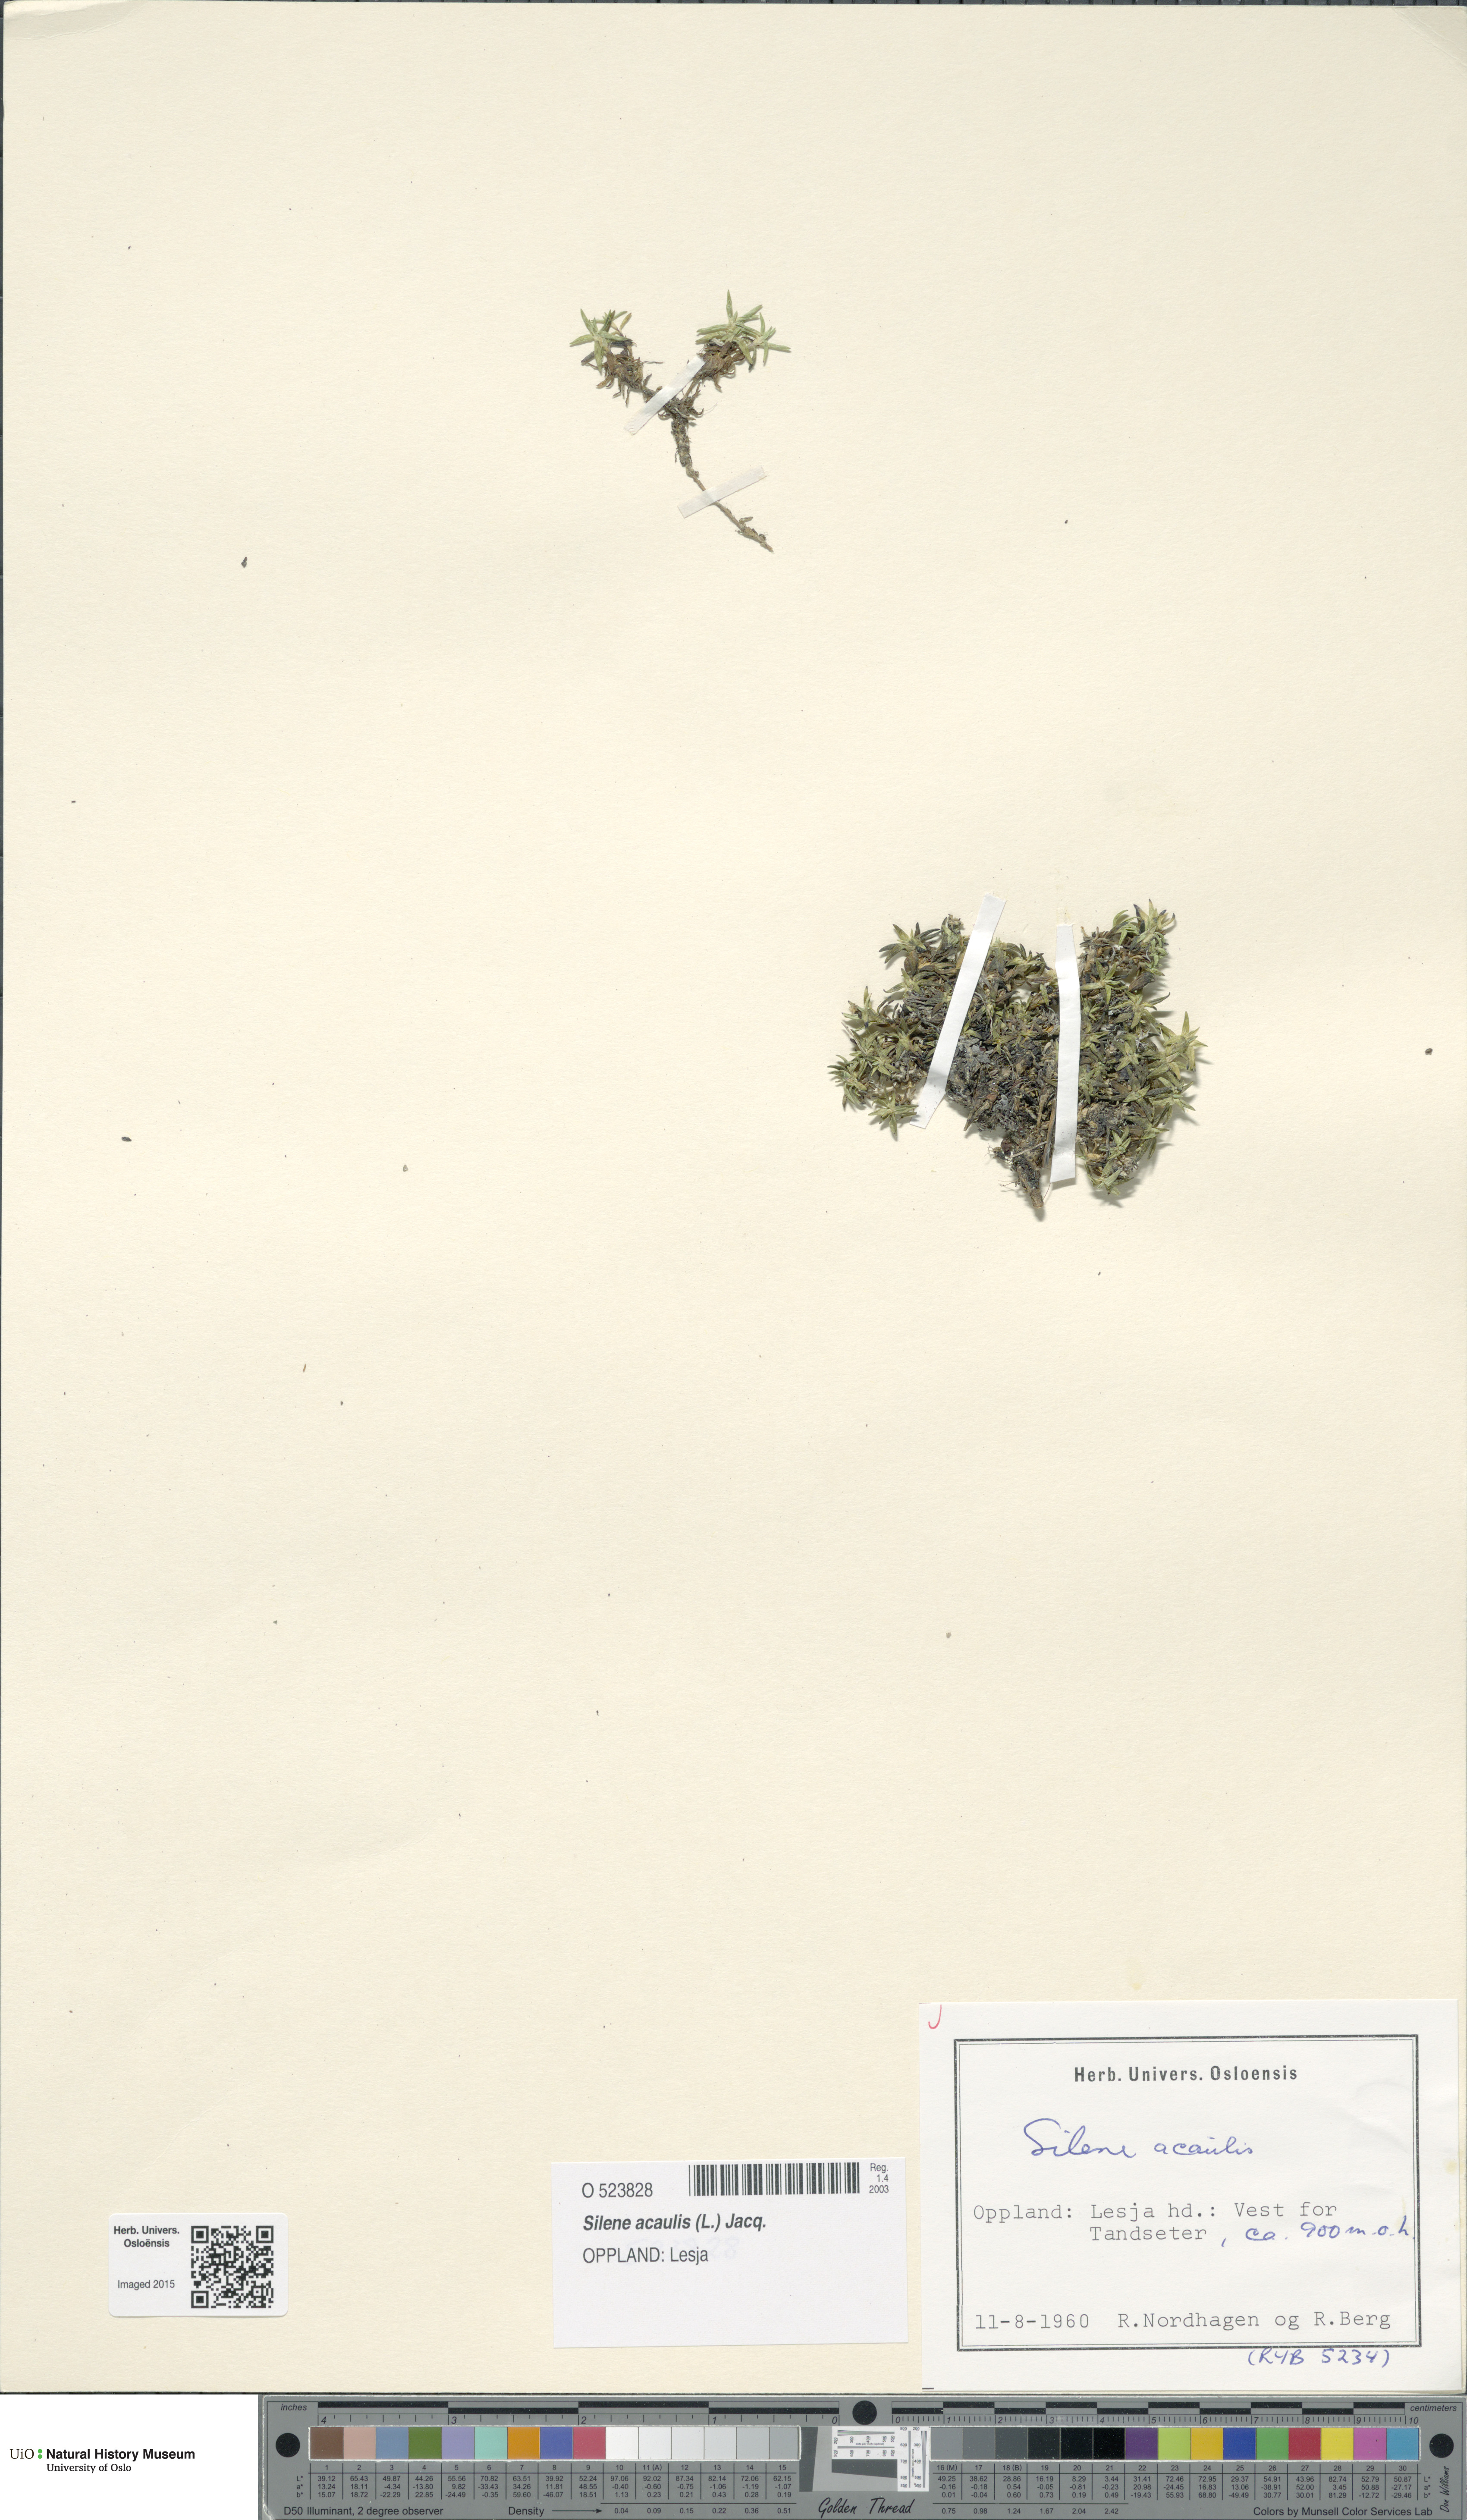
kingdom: Plantae
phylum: Tracheophyta
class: Magnoliopsida
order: Caryophyllales
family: Caryophyllaceae
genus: Silene
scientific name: Silene acaulis
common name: Moss campion
